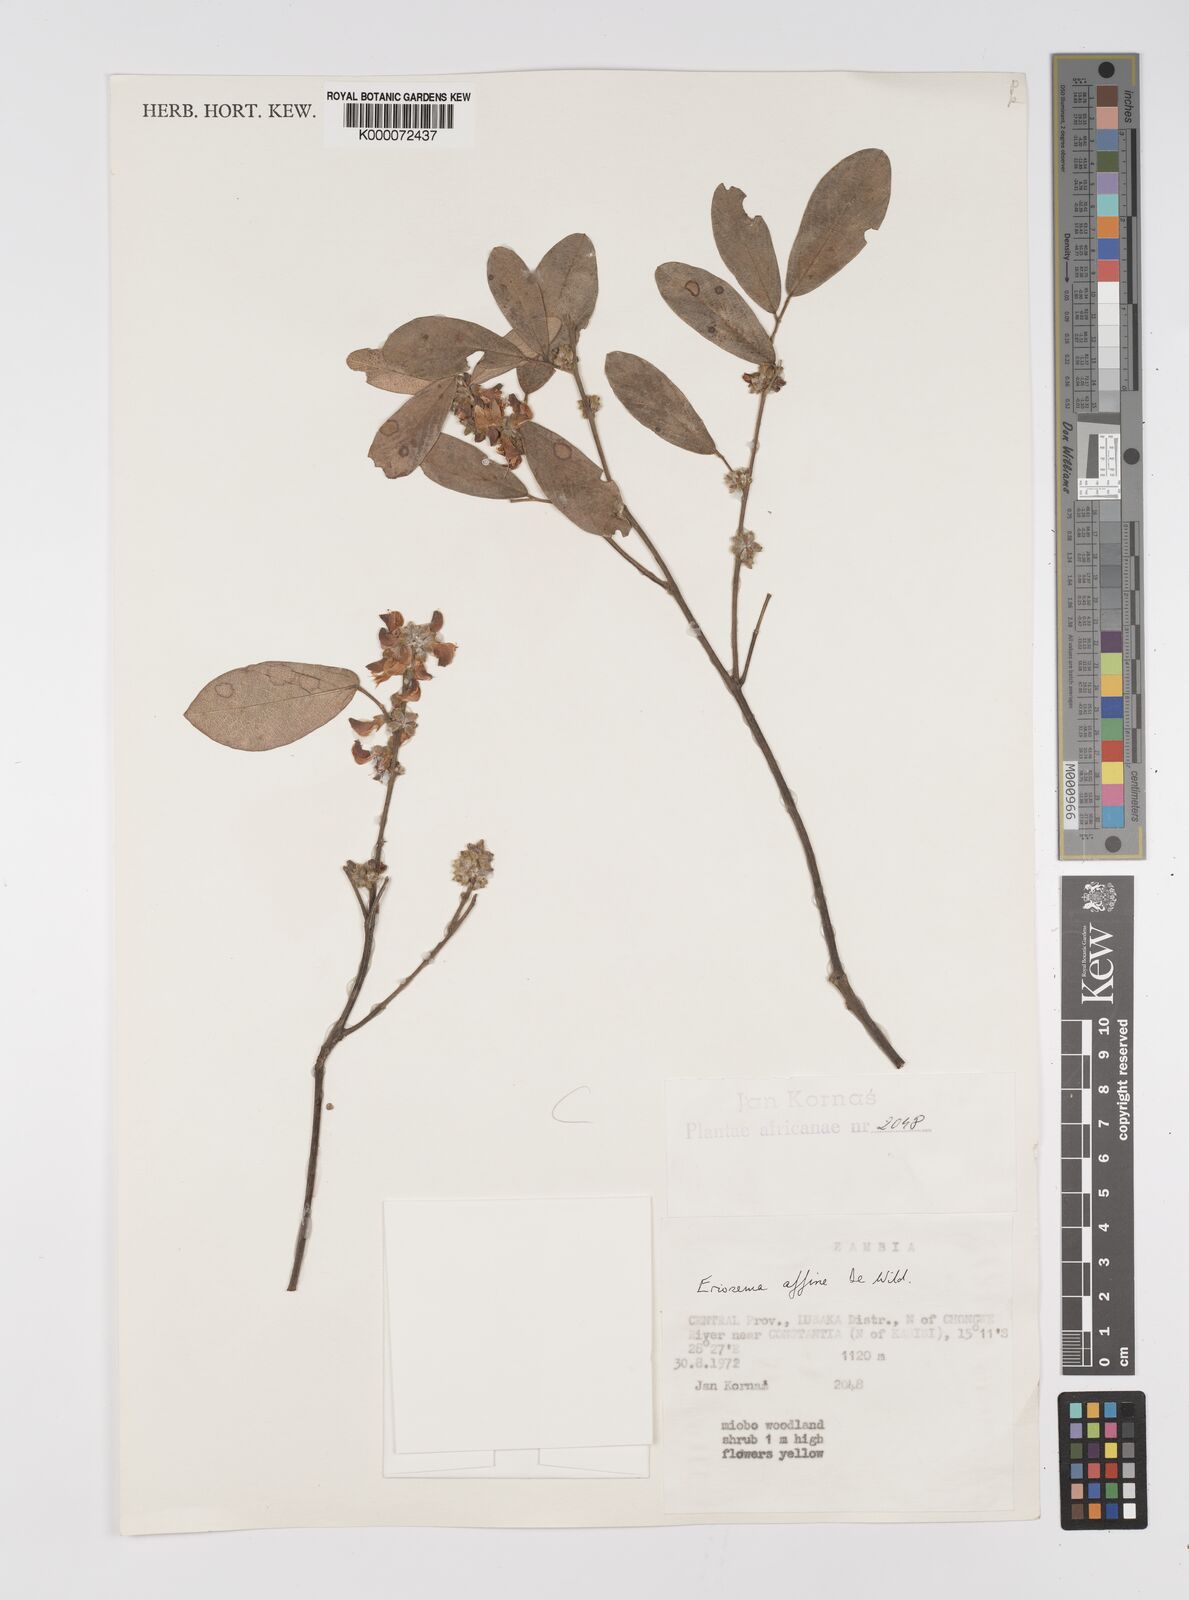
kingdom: Plantae
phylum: Tracheophyta
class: Magnoliopsida
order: Fabales
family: Fabaceae
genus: Eriosema
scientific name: Eriosema affine
